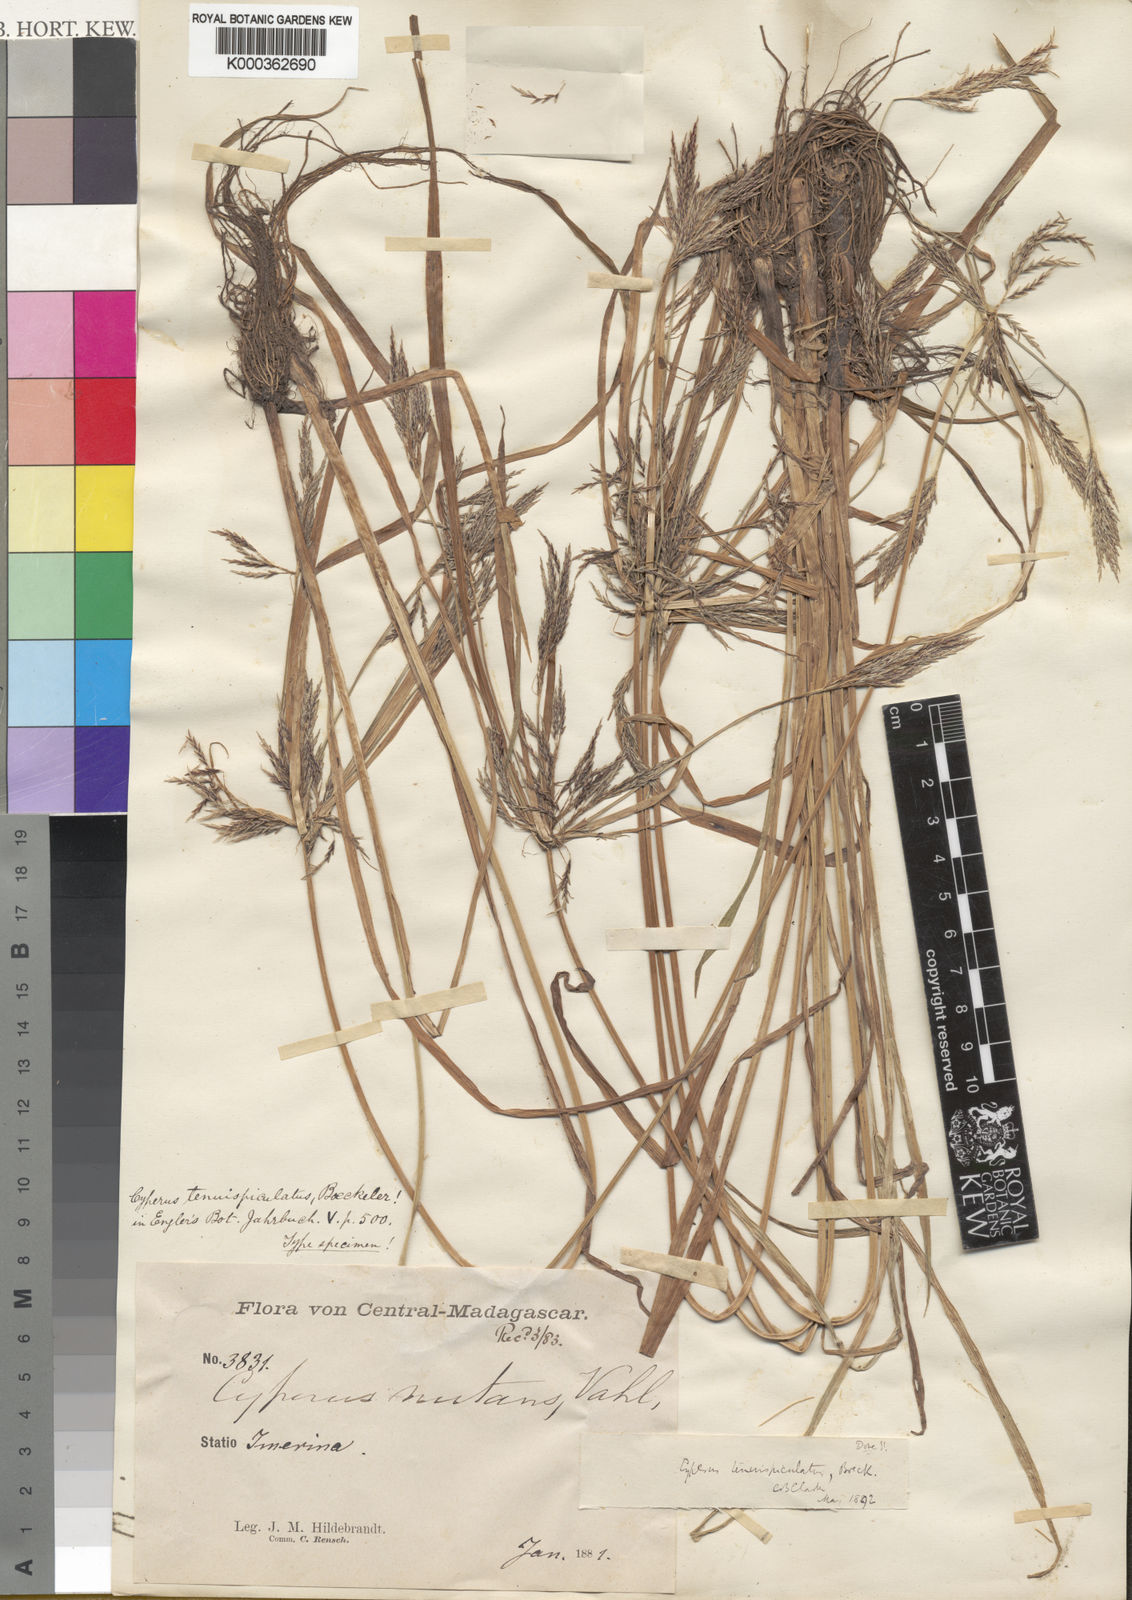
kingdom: Plantae
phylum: Tracheophyta
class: Liliopsida
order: Poales
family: Cyperaceae
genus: Cyperus
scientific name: Cyperus tenuispiculatus
